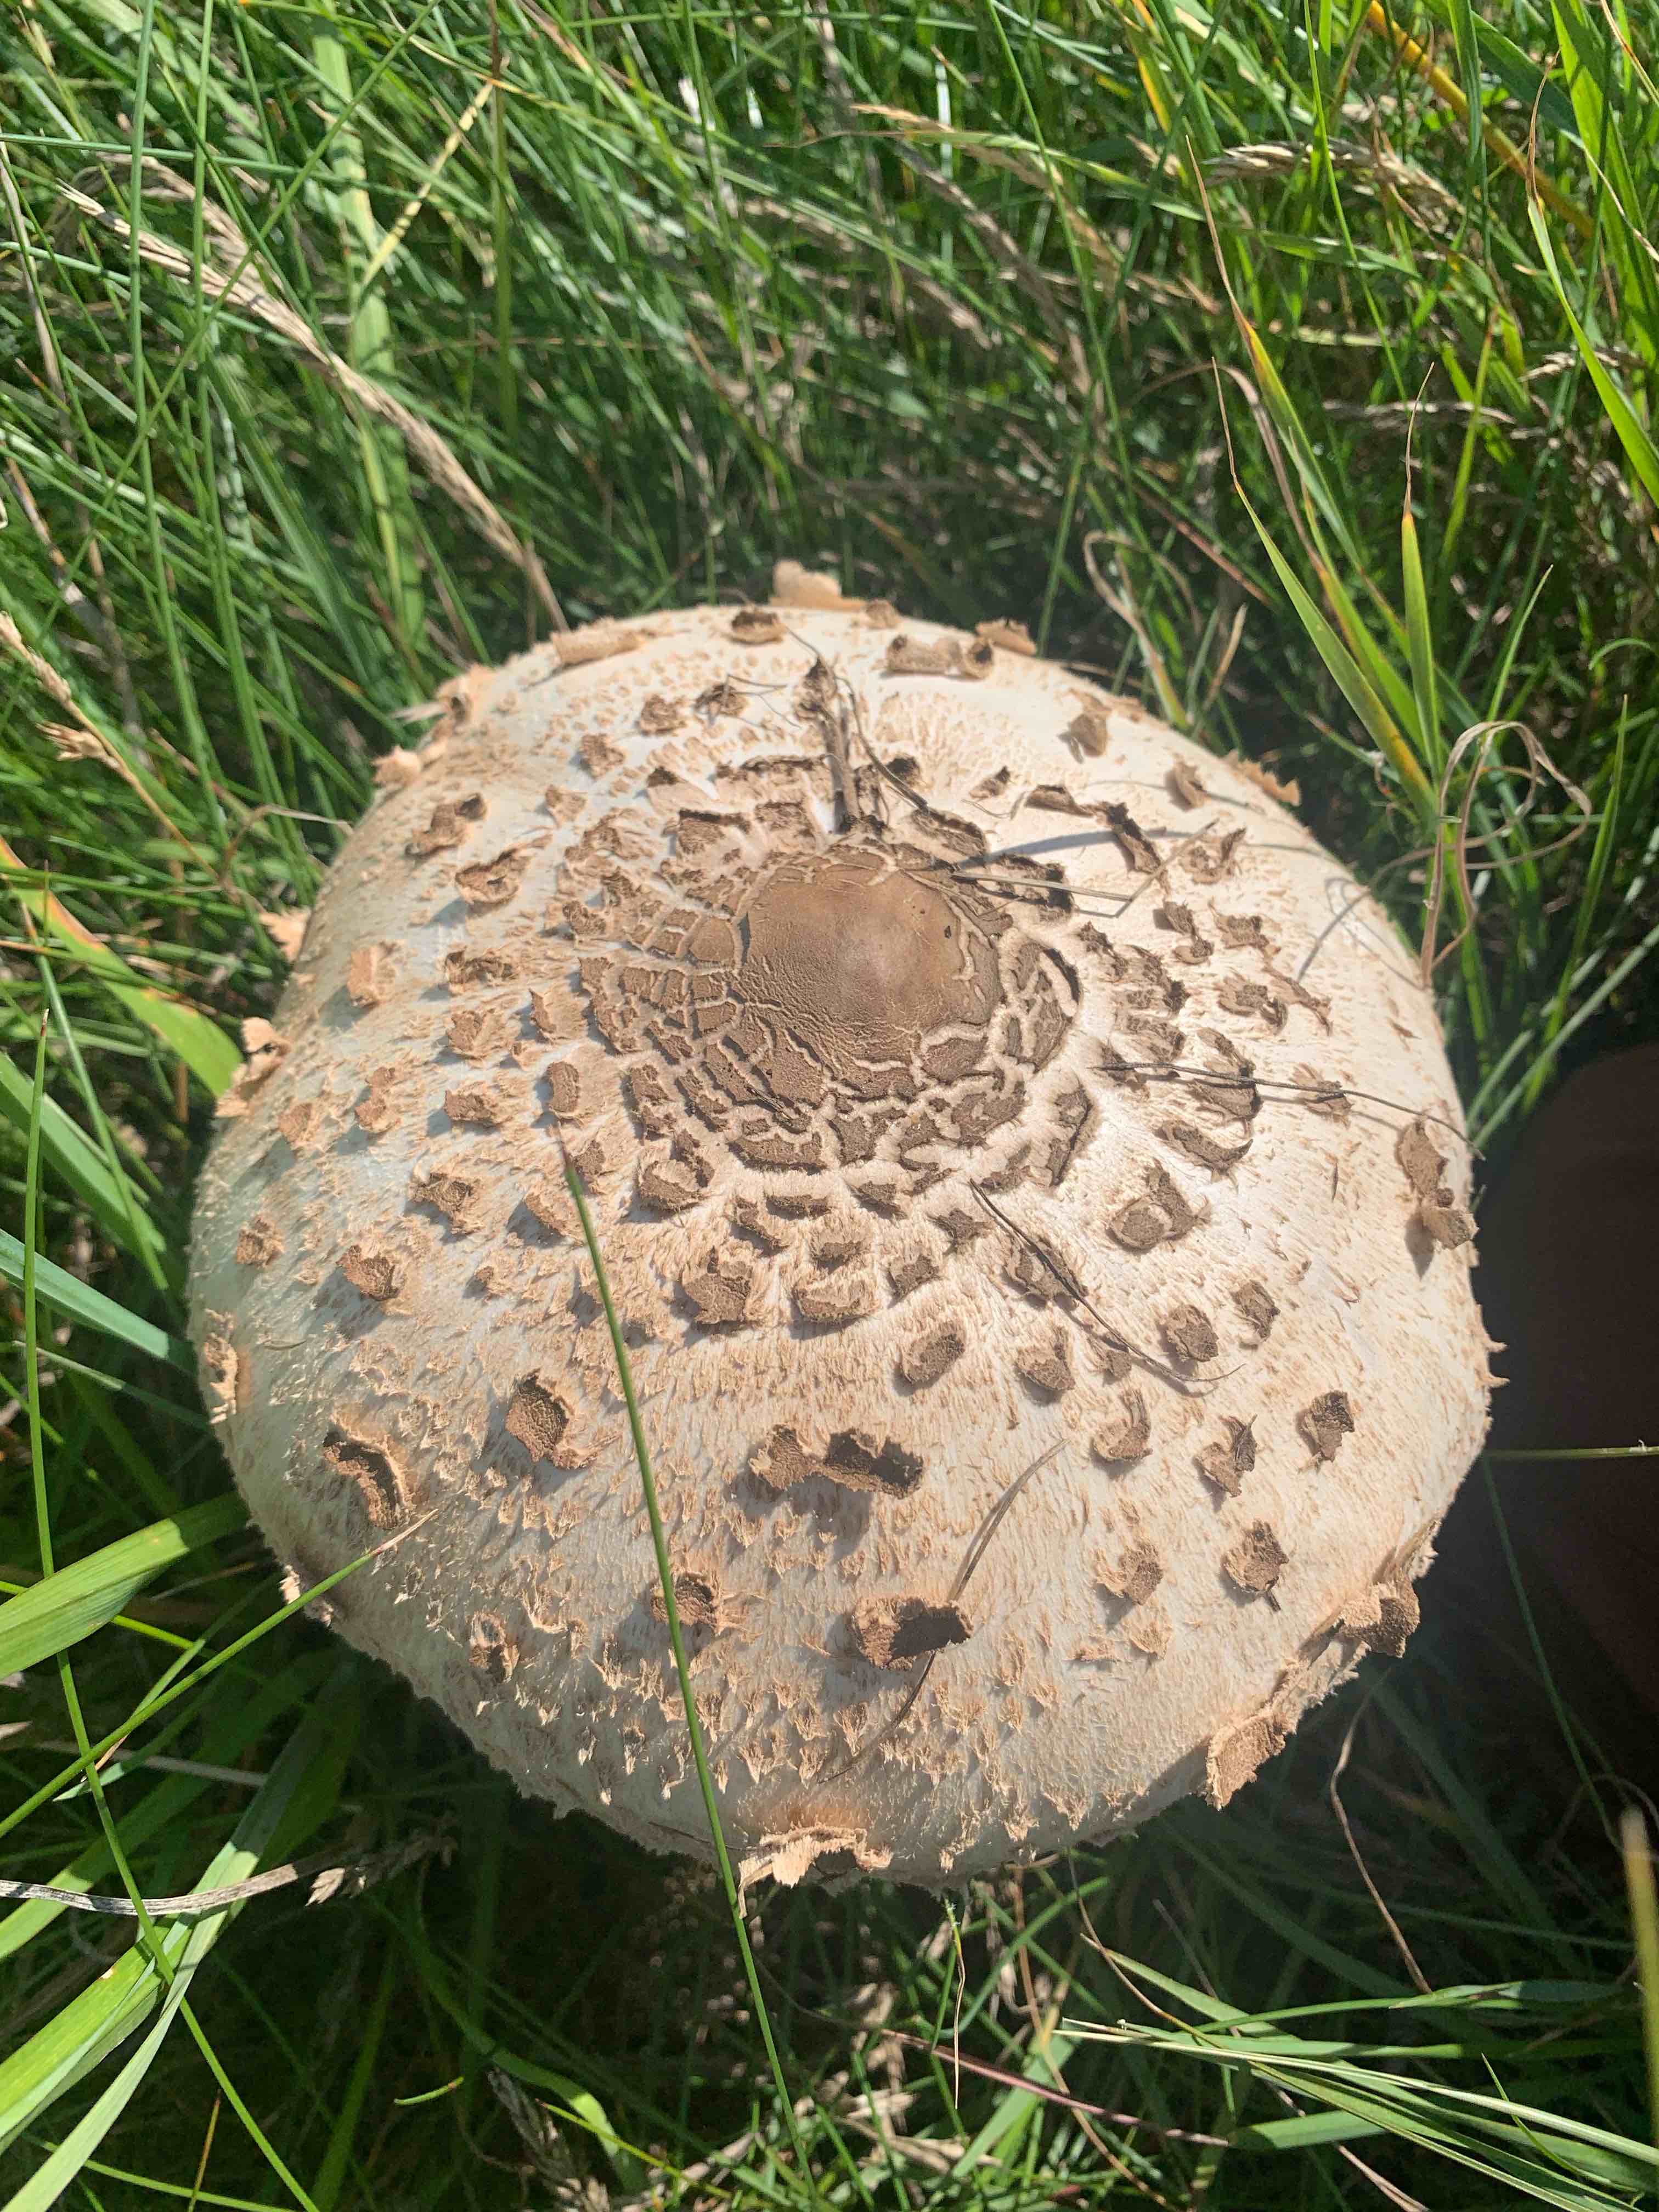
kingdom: Fungi
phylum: Basidiomycota
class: Agaricomycetes
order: Agaricales
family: Agaricaceae
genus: Macrolepiota
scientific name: Macrolepiota procera
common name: stor kæmpeparasolhat
